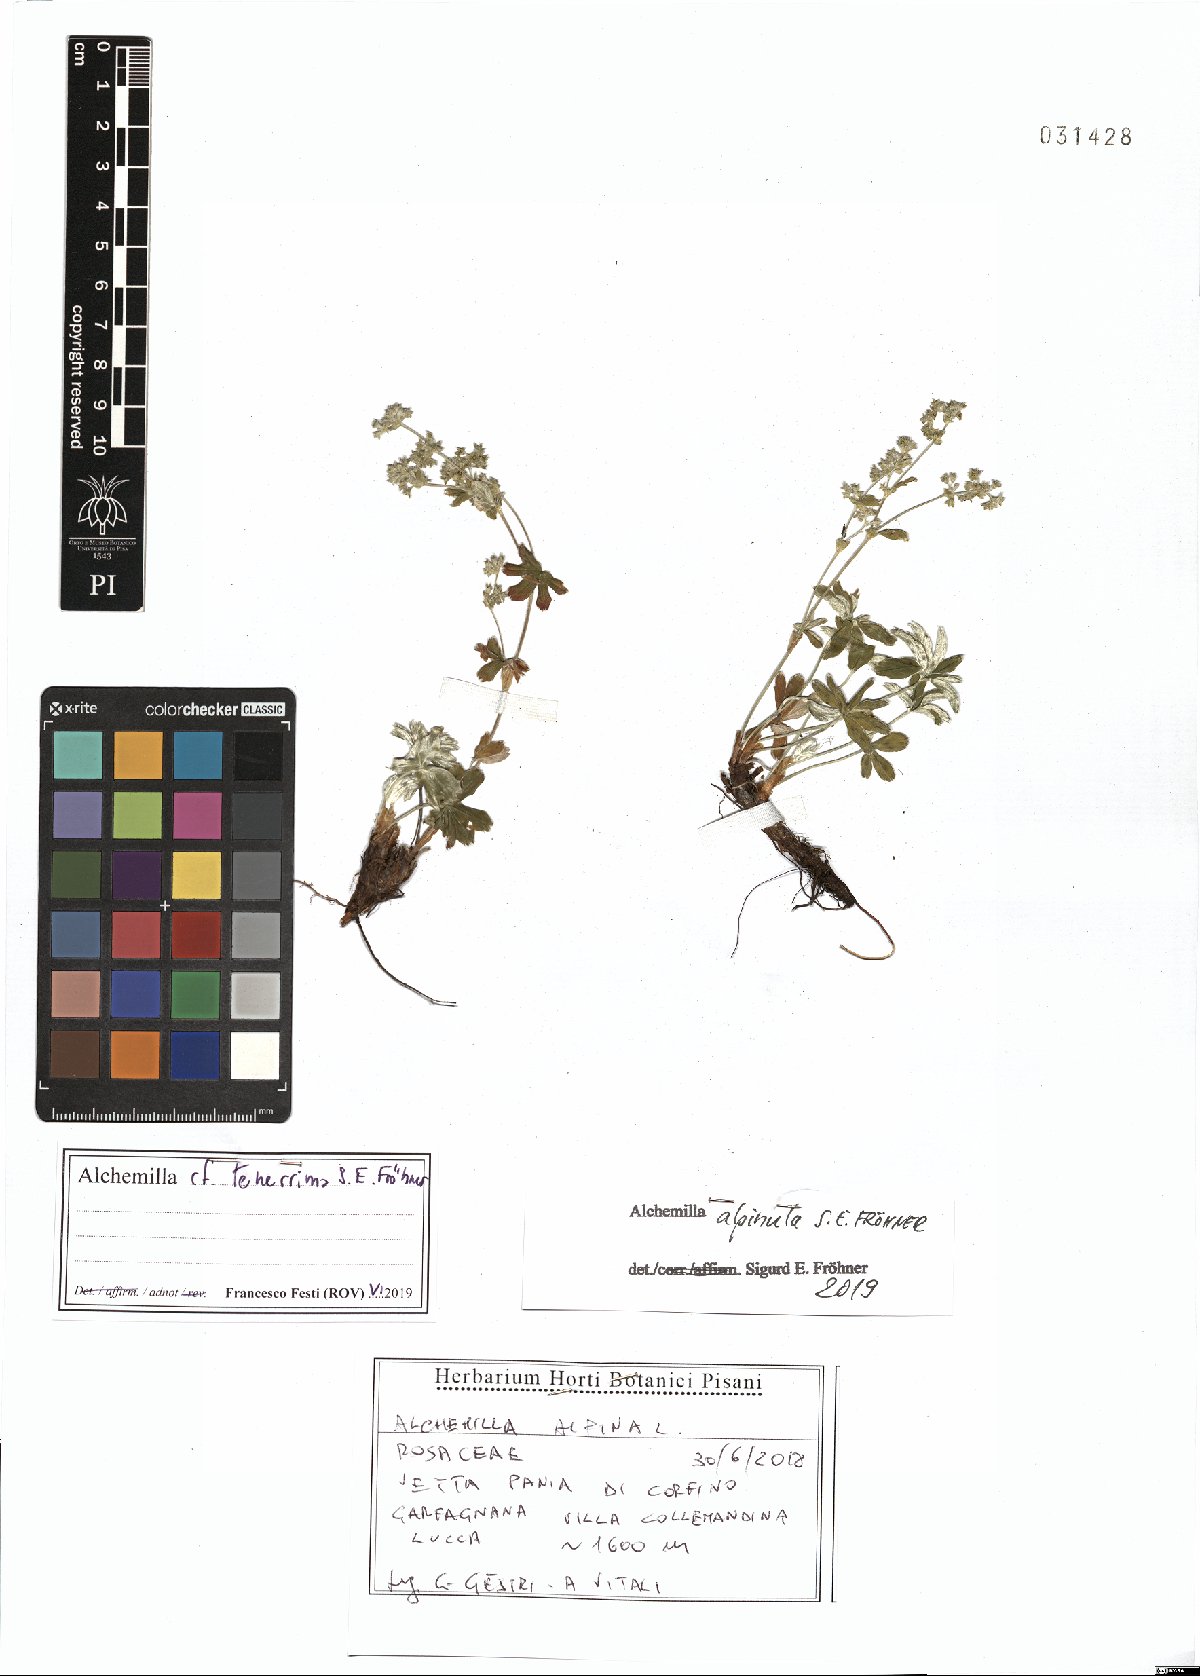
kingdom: Plantae
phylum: Tracheophyta
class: Magnoliopsida
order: Rosales
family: Rosaceae
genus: Alchemilla
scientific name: Alchemilla alpinula
